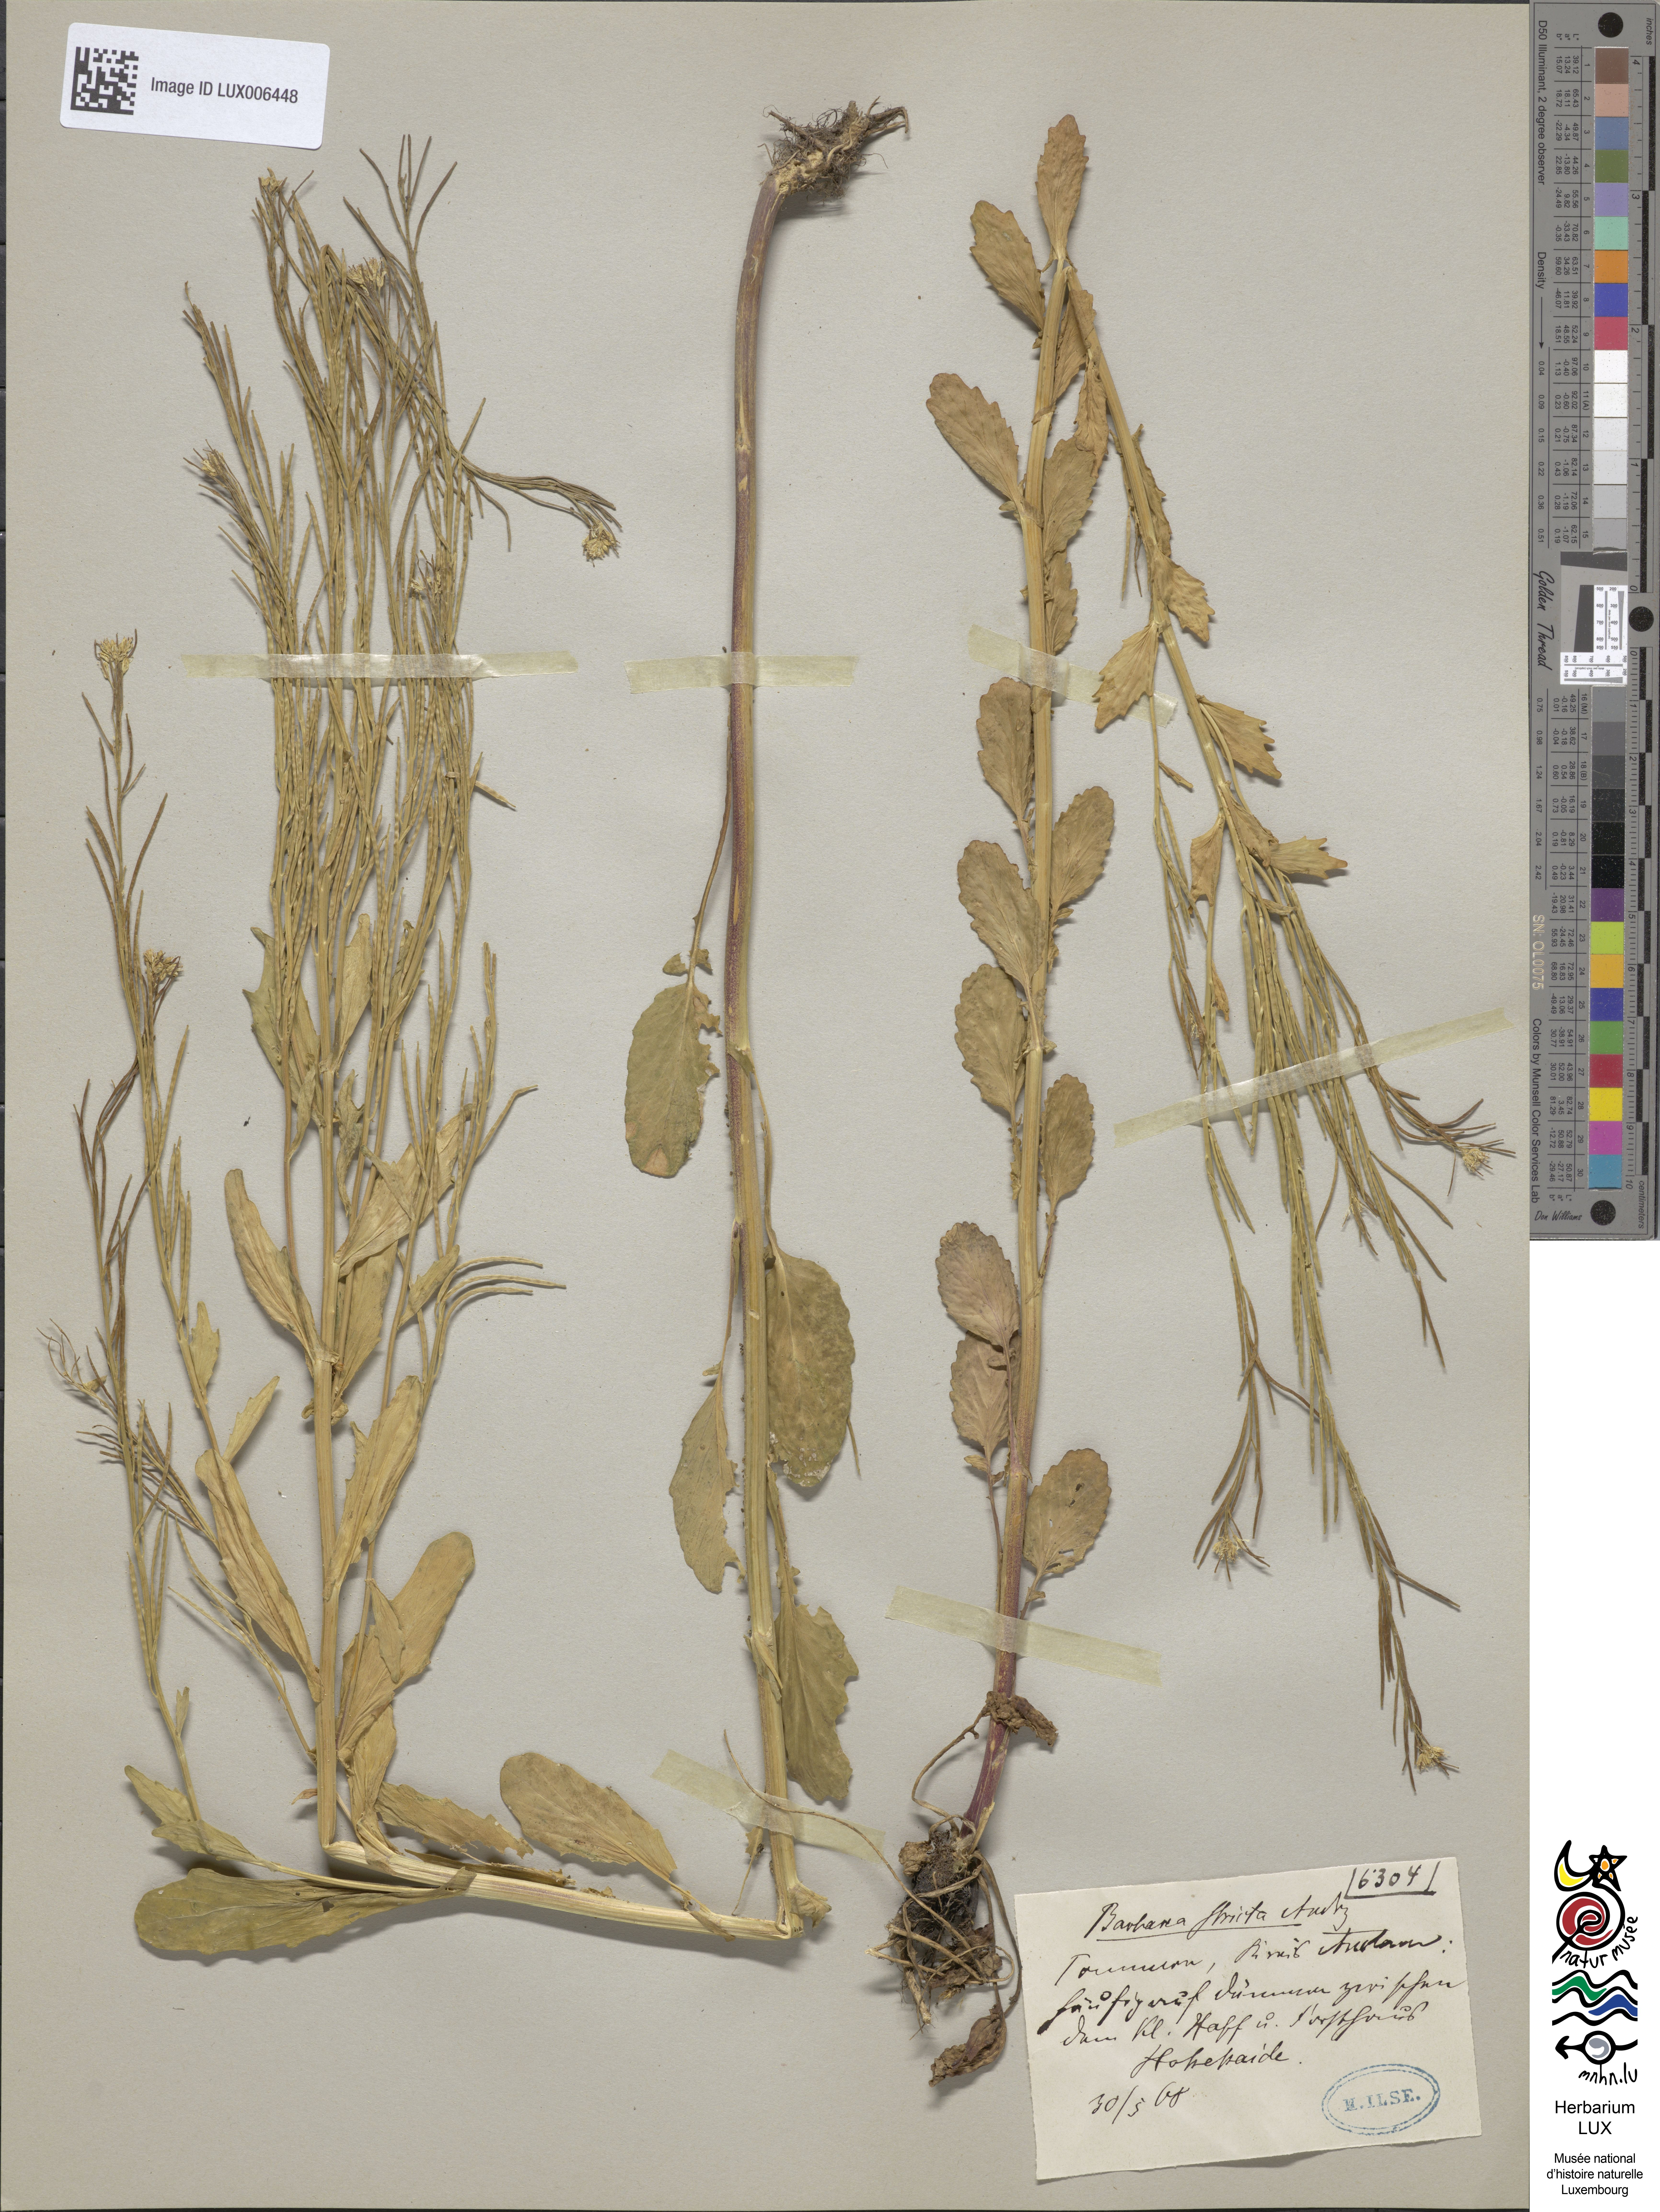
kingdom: Plantae
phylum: Tracheophyta
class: Magnoliopsida
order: Brassicales
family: Brassicaceae
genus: Barbarea
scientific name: Barbarea vulgaris
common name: Cressy-greens
